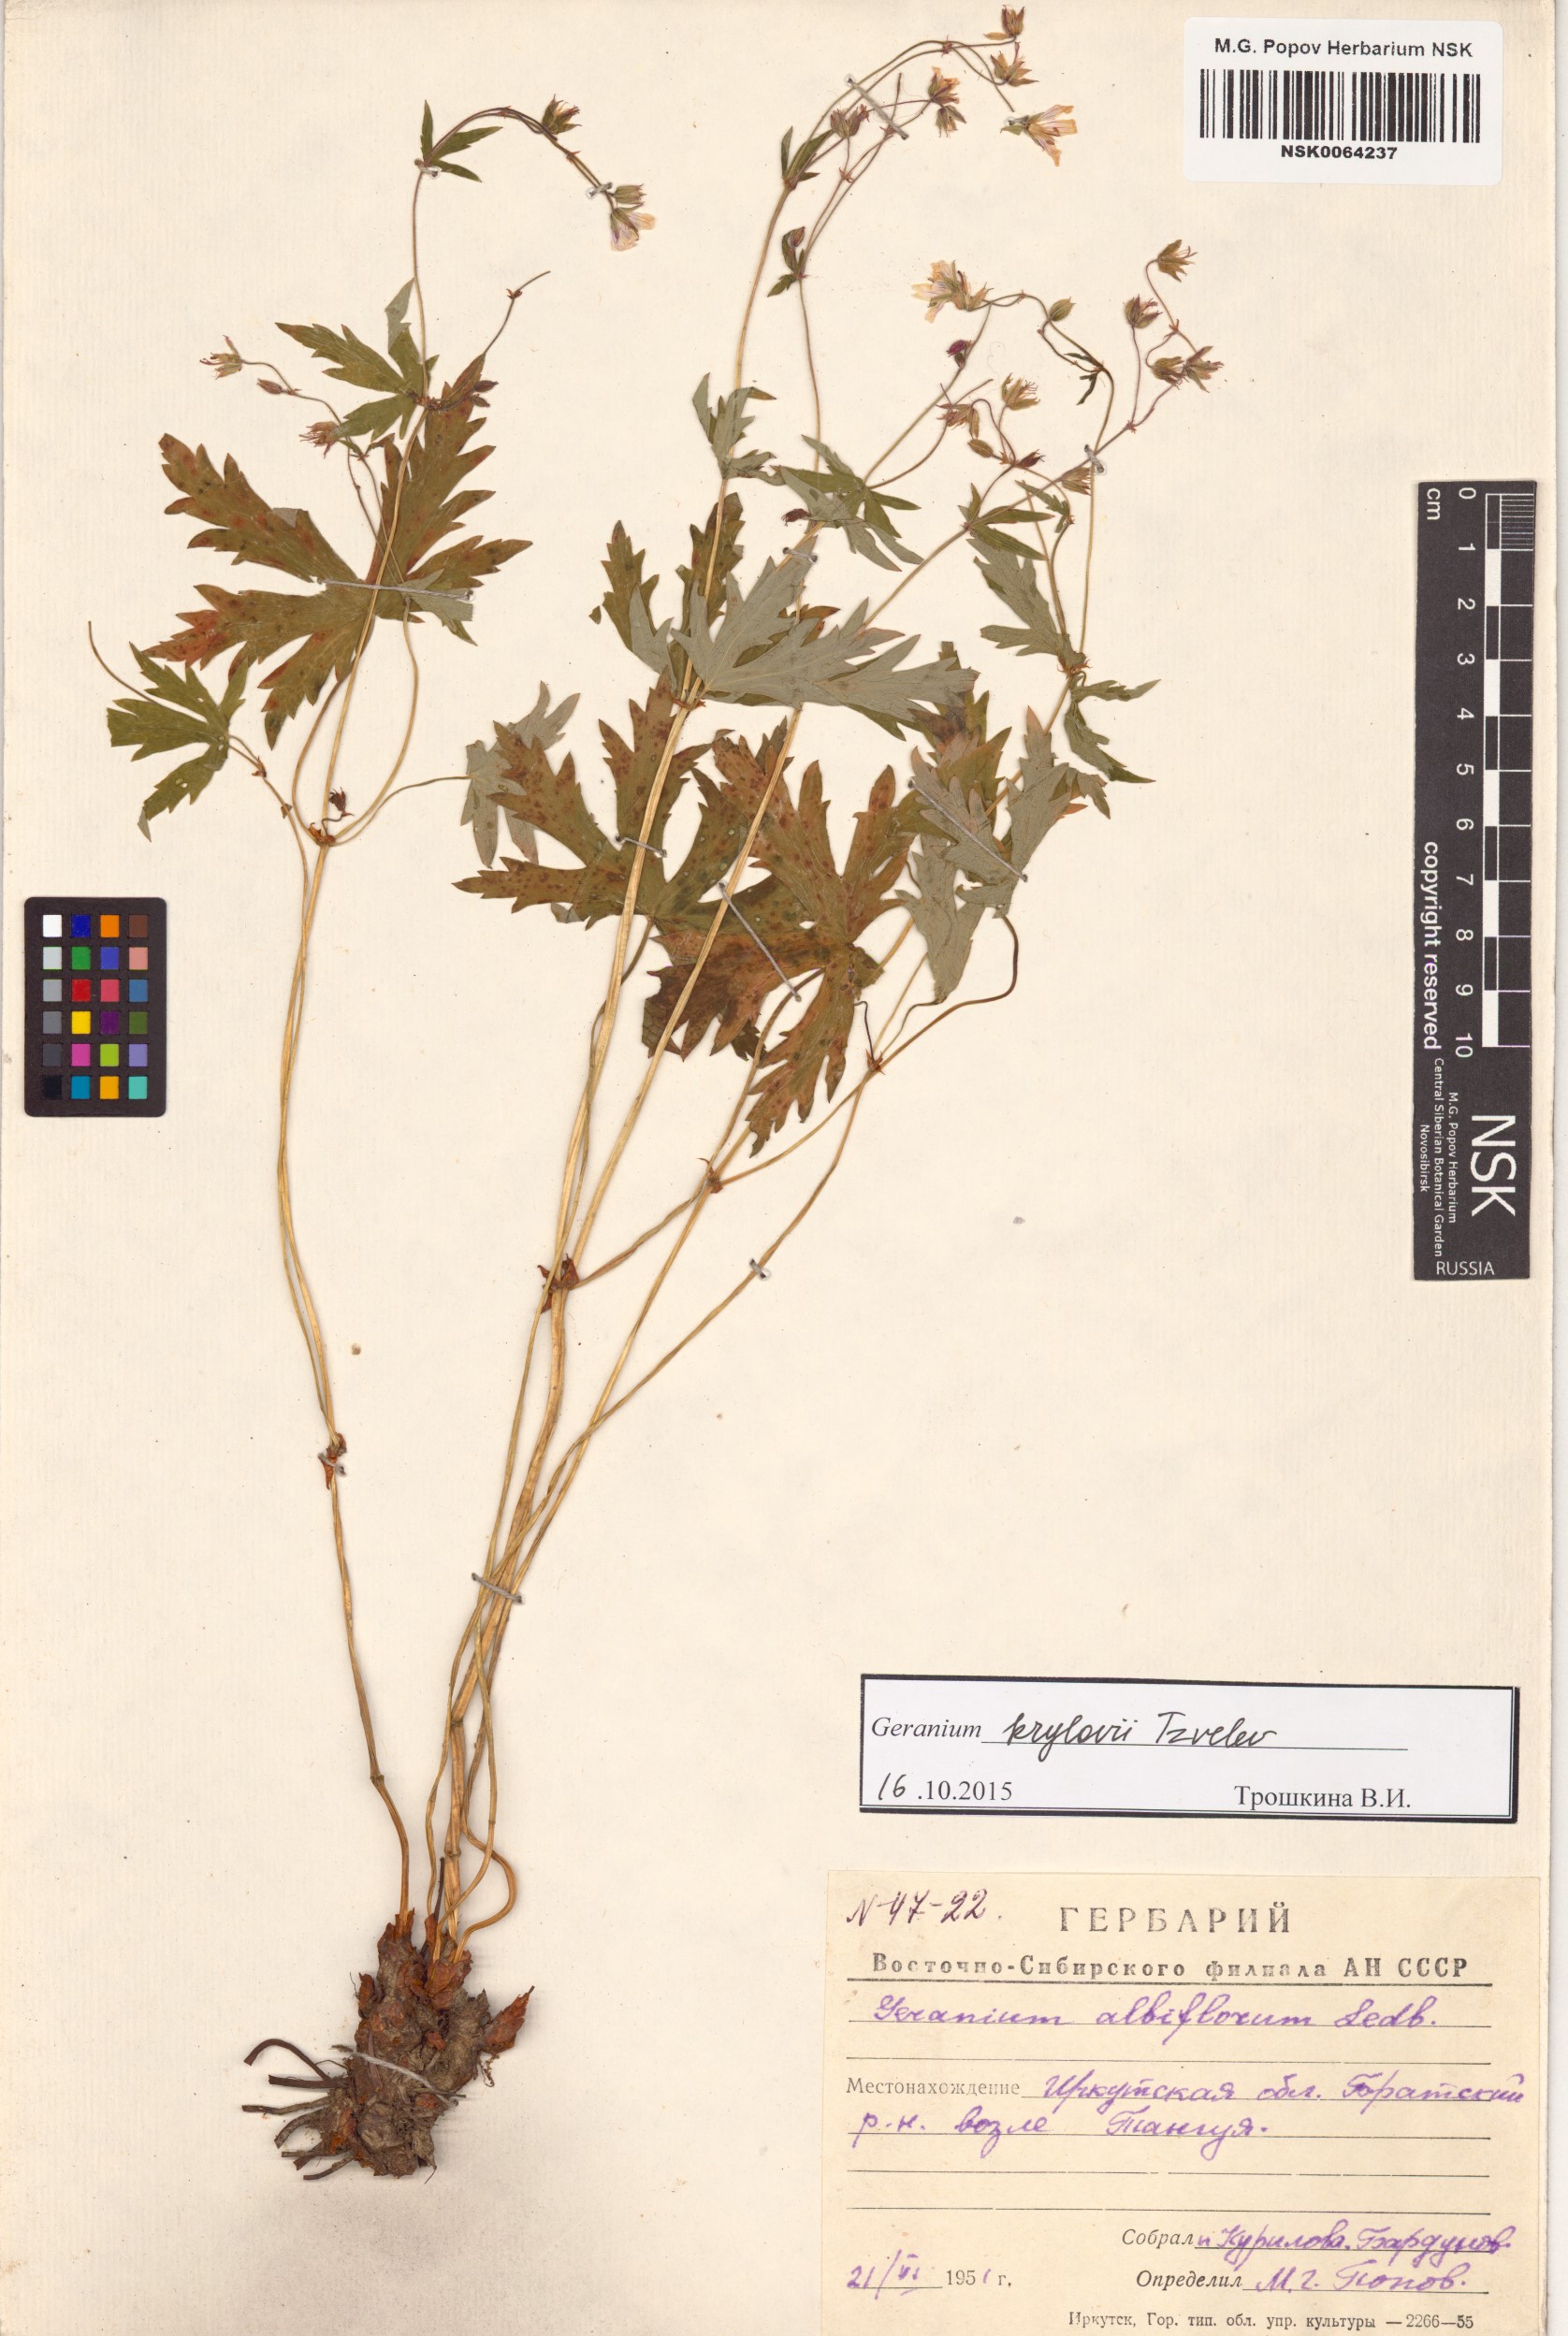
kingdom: Plantae
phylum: Tracheophyta
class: Magnoliopsida
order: Geraniales
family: Geraniaceae
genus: Geranium
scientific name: Geranium sylvaticum
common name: Wood crane's-bill
